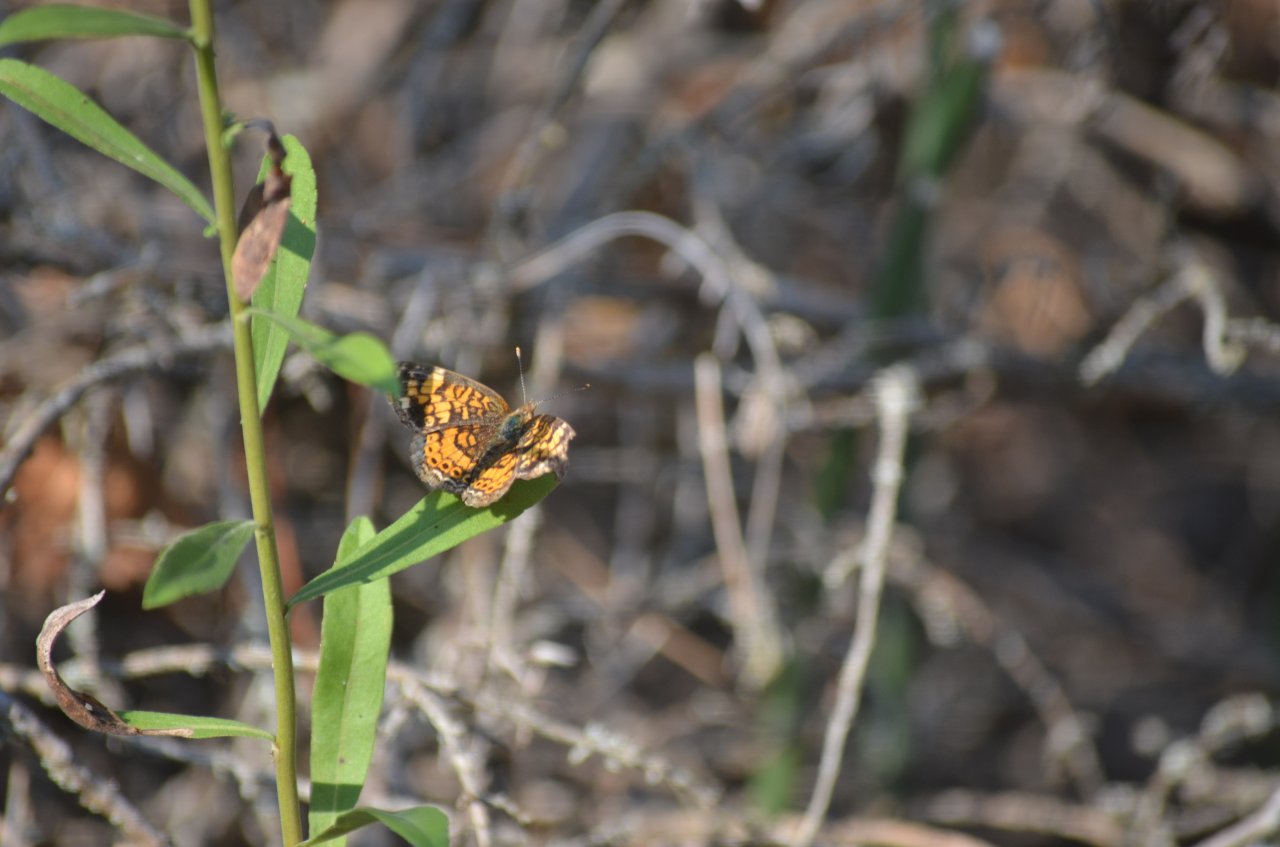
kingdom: Animalia
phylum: Arthropoda
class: Insecta
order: Lepidoptera
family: Nymphalidae
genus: Phyciodes
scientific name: Phyciodes tharos
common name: Northern Crescent
